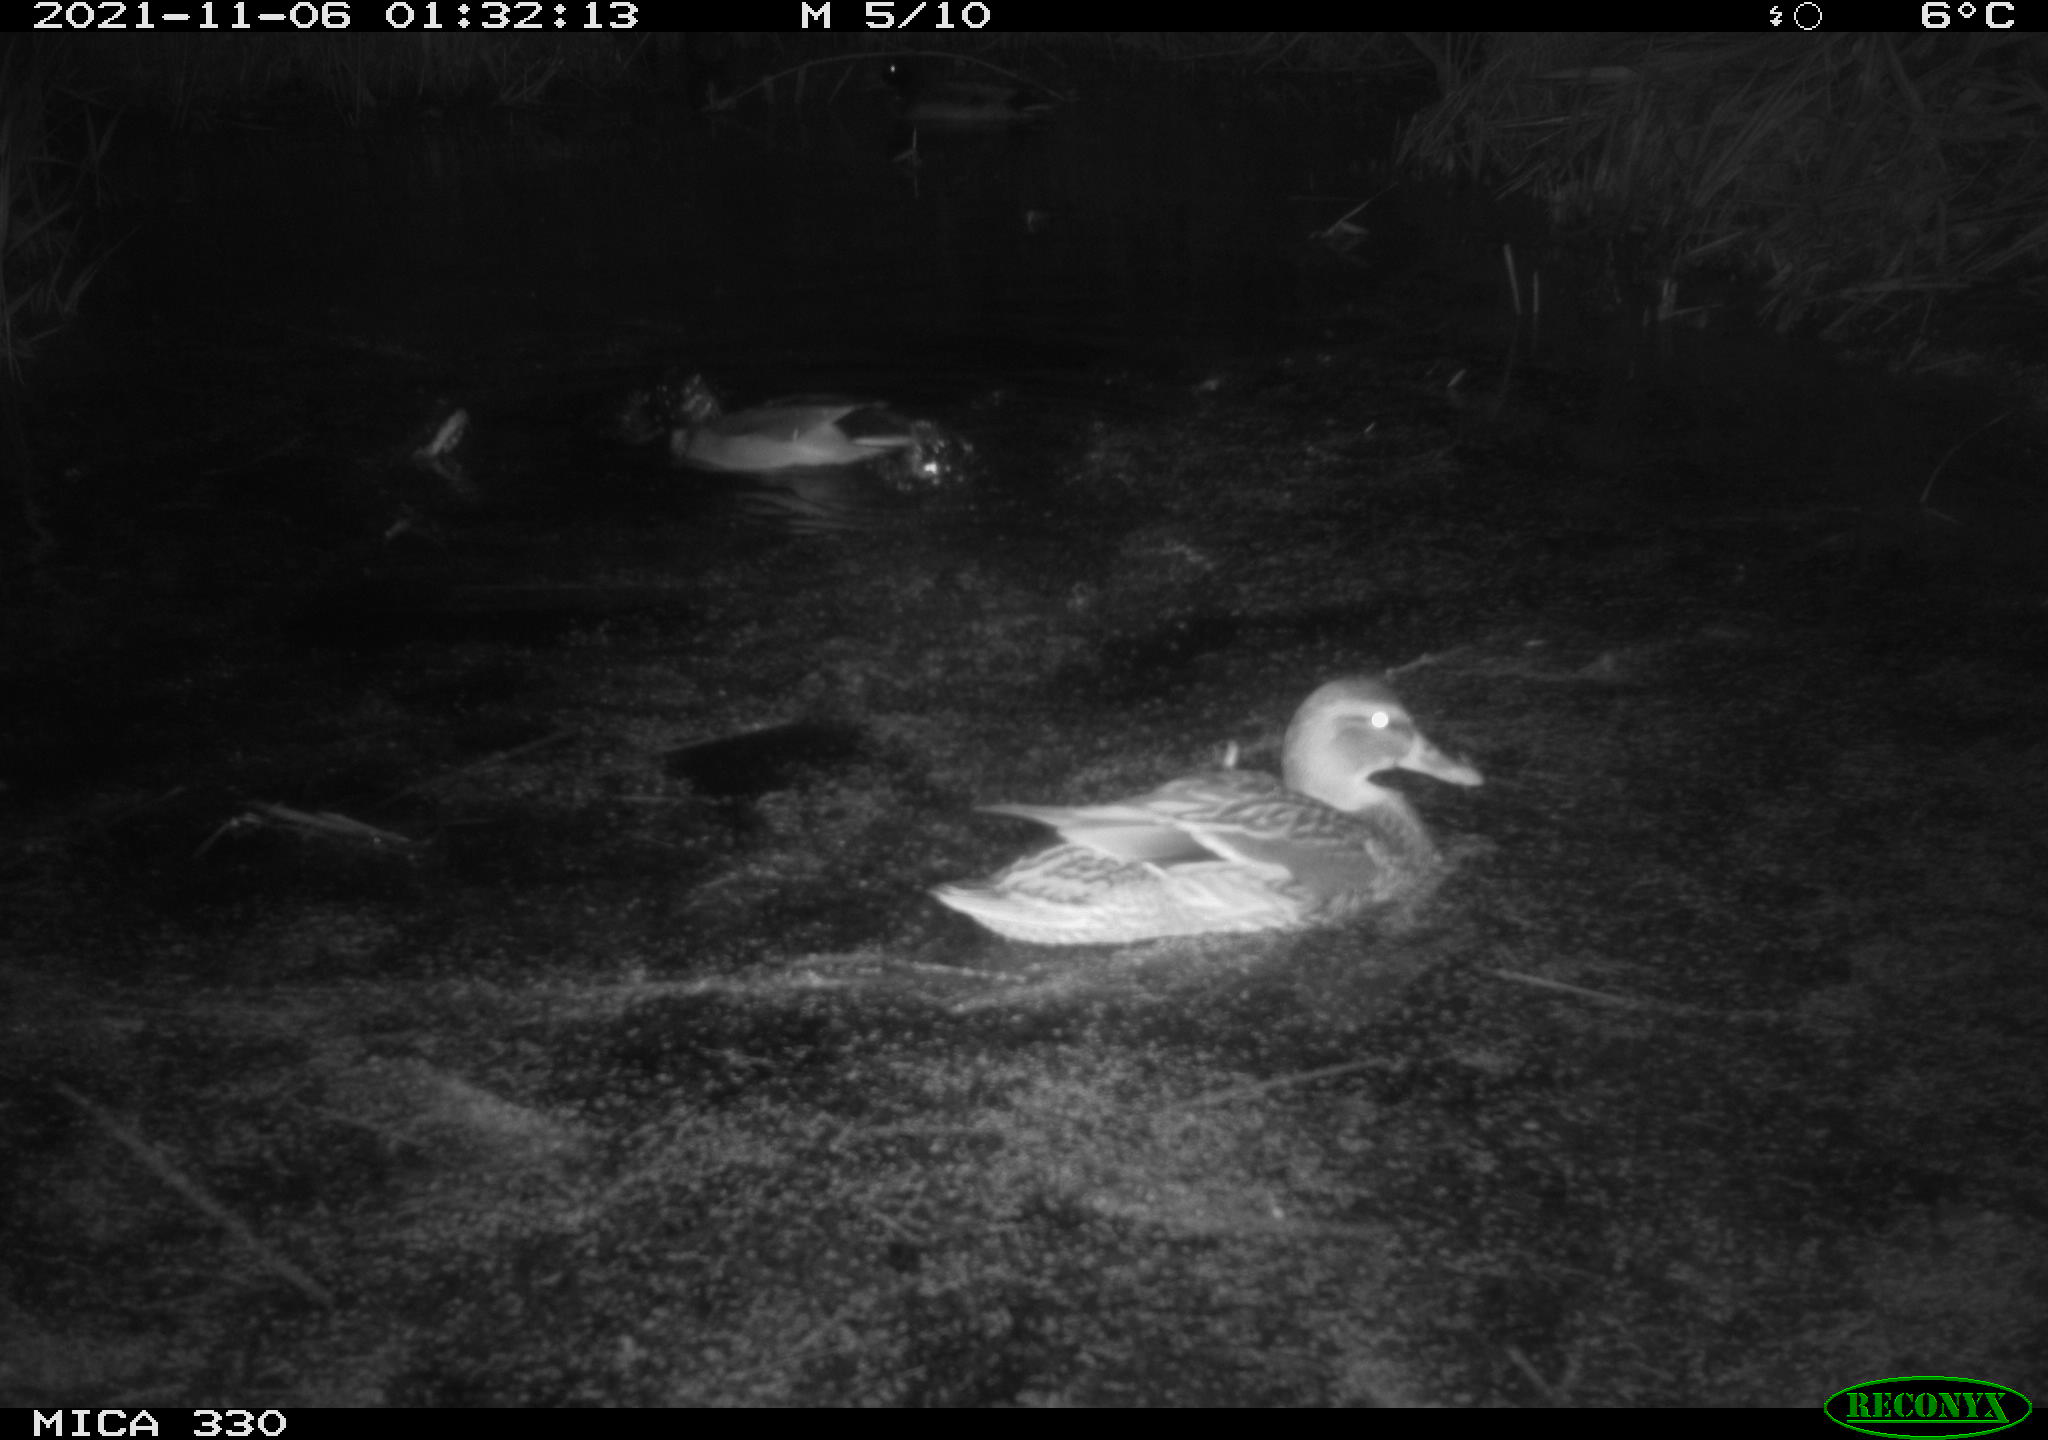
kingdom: Animalia
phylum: Chordata
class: Aves
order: Anseriformes
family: Anatidae
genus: Anas
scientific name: Anas platyrhynchos
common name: Mallard
